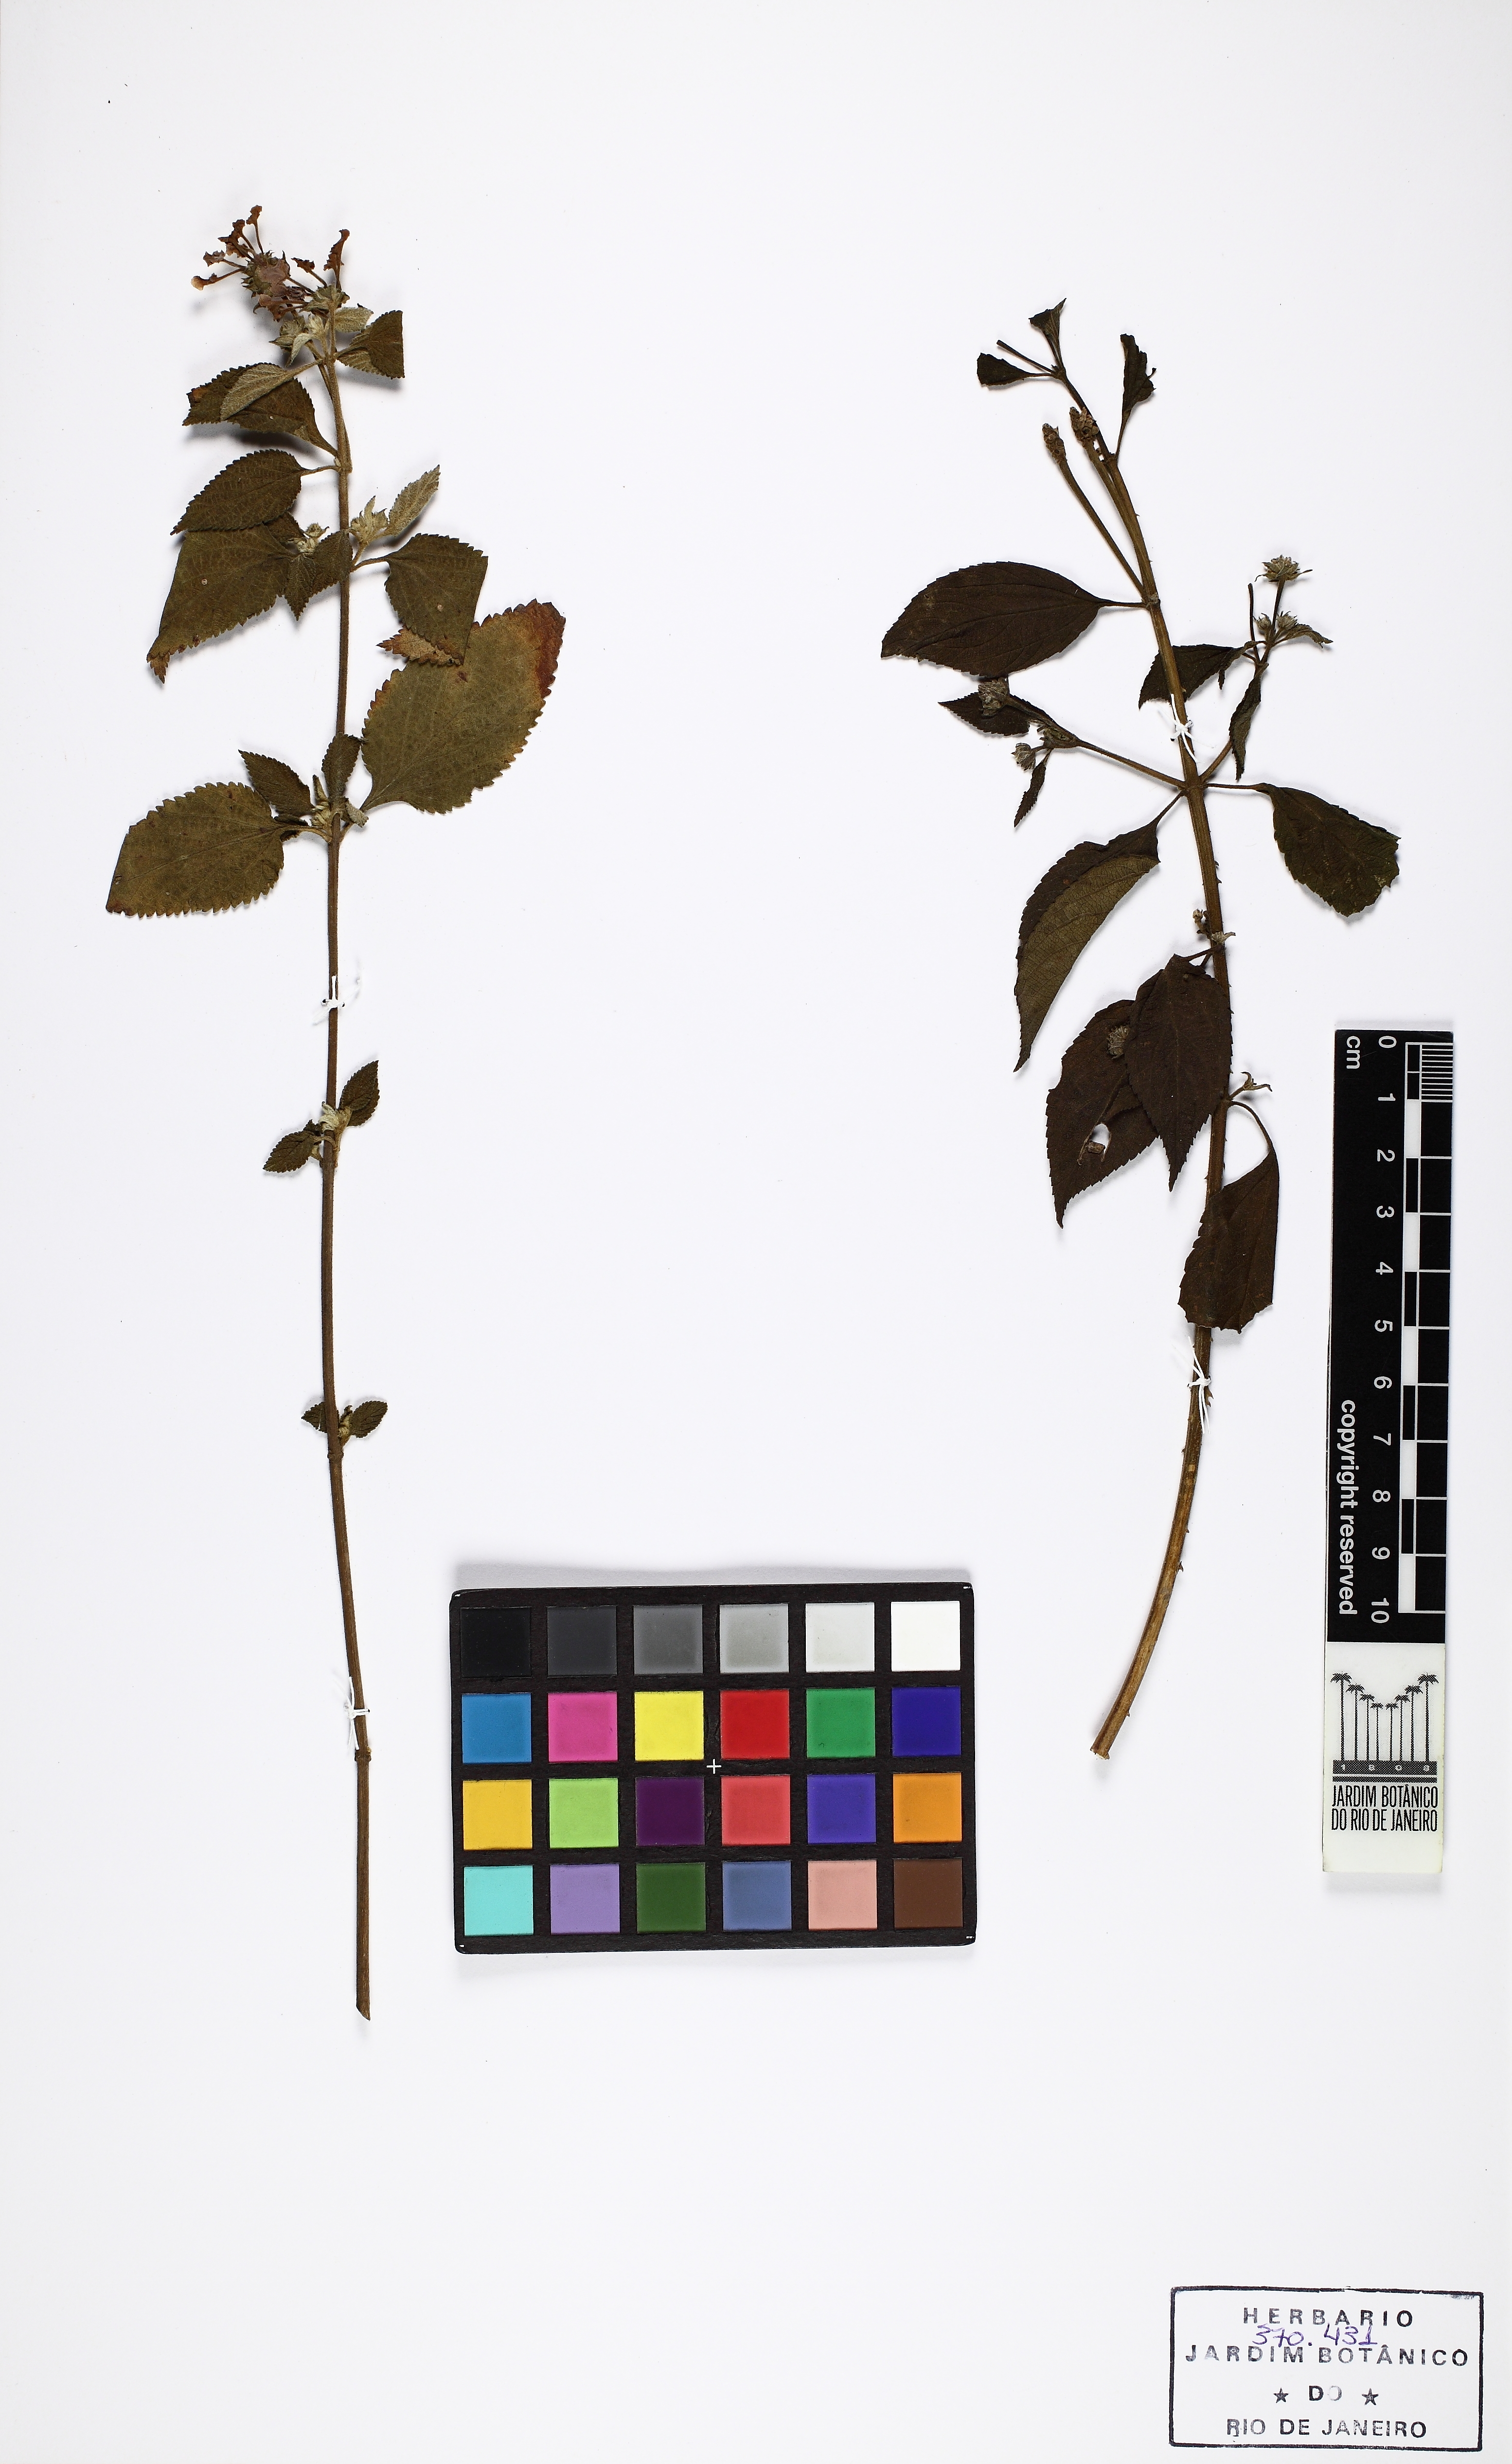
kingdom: Plantae
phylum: Tracheophyta
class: Magnoliopsida
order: Lamiales
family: Verbenaceae
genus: Lantana
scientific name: Lantana fucata
